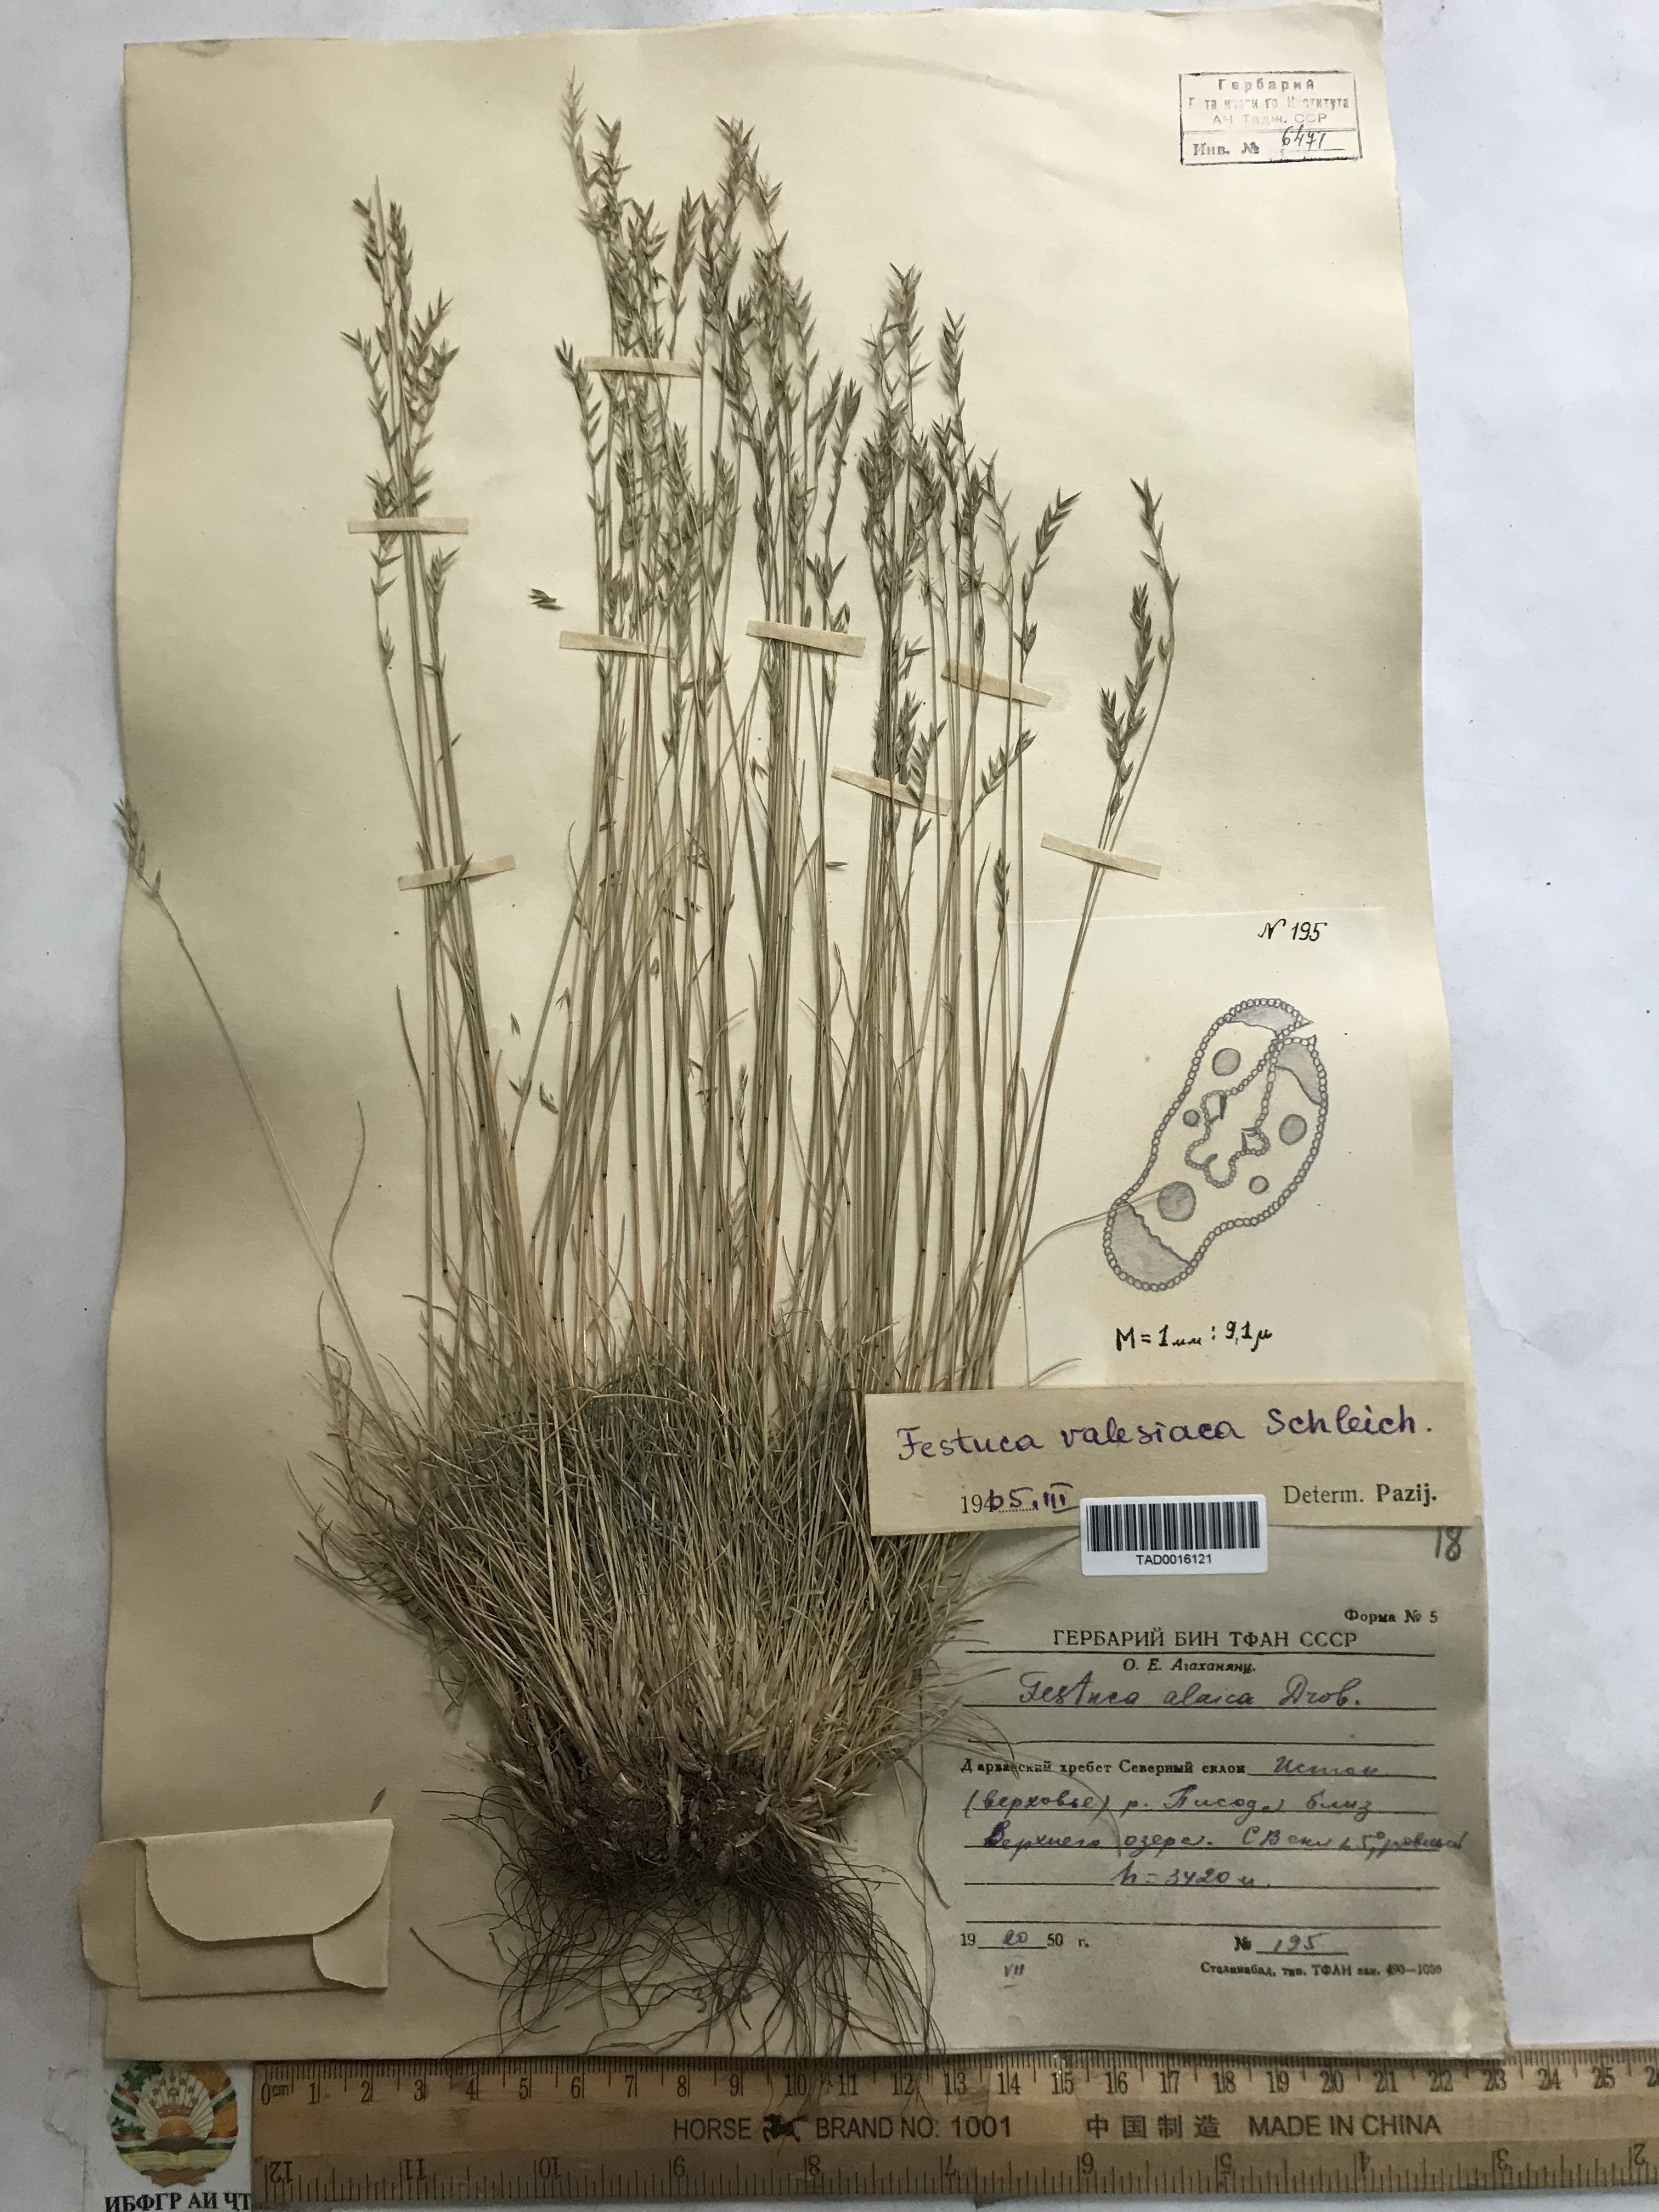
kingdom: Plantae
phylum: Tracheophyta
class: Liliopsida
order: Poales
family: Poaceae
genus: Festuca
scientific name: Festuca valesiaca
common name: Volga fescue
